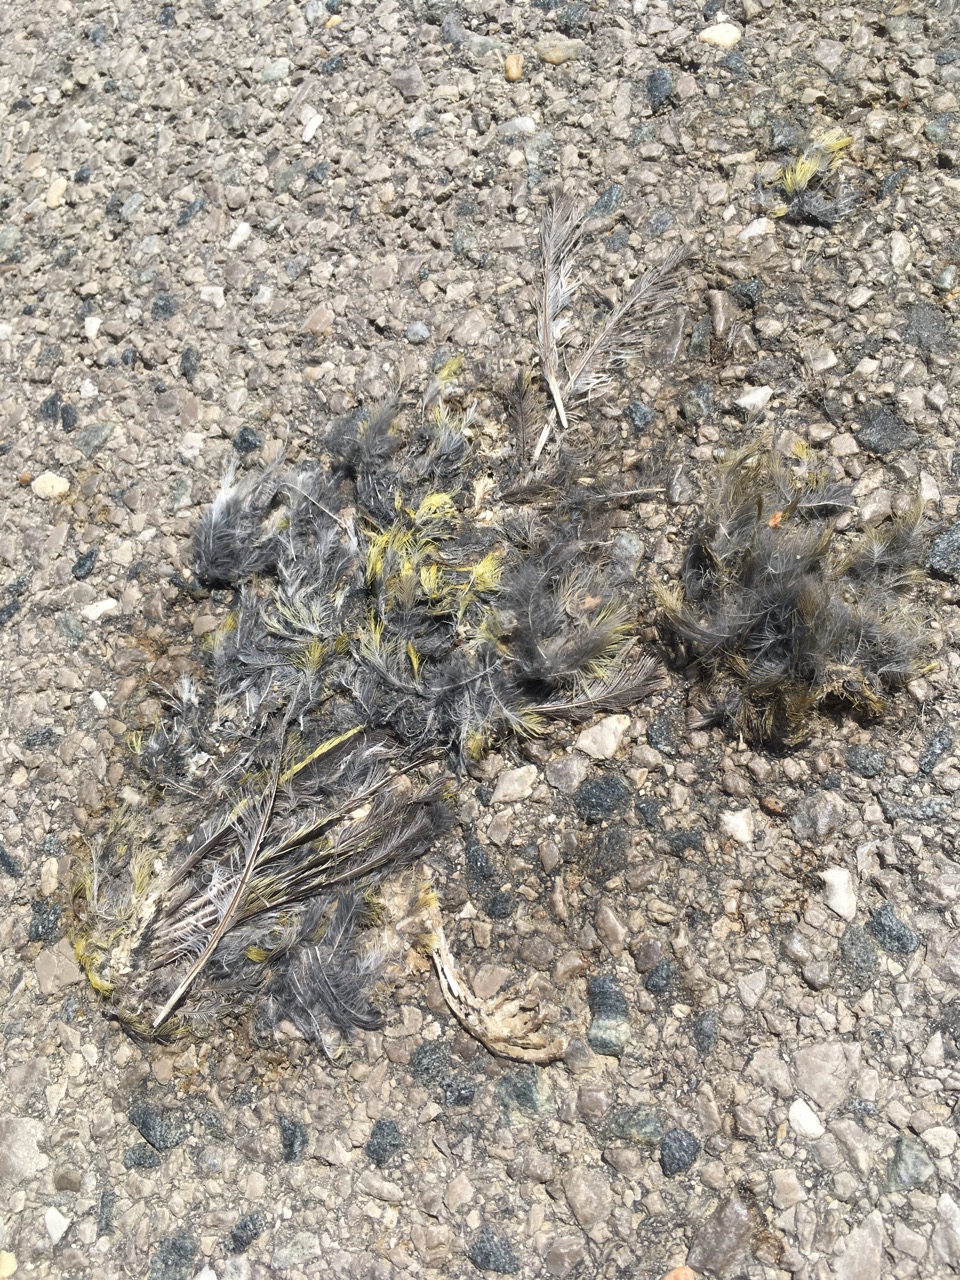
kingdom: Plantae
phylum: Tracheophyta
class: Liliopsida
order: Poales
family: Poaceae
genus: Chloris
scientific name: Chloris chloris
